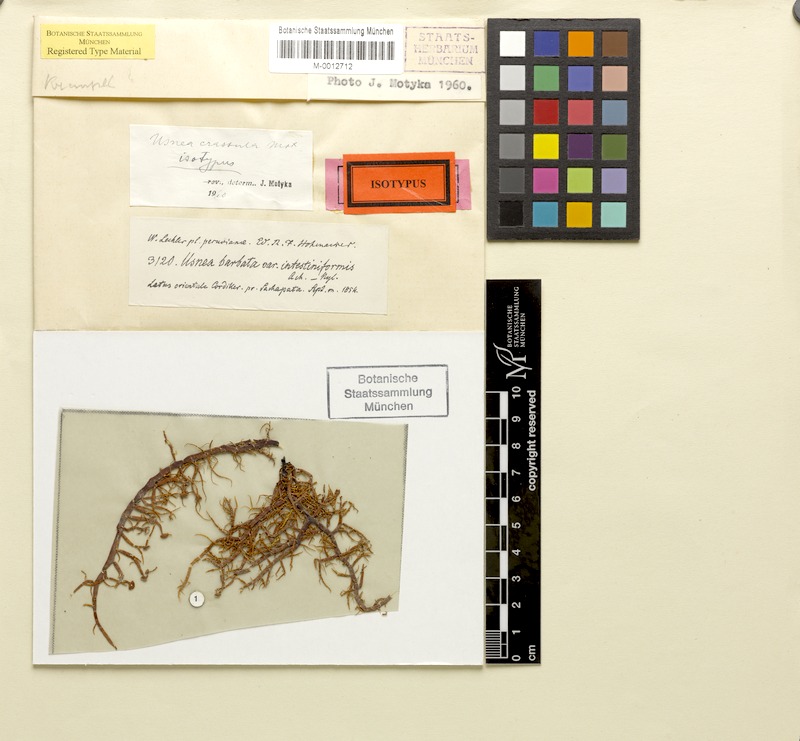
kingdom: Fungi
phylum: Ascomycota
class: Lecanoromycetes
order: Lecanorales
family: Parmeliaceae
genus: Usnea
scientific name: Usnea crassula
